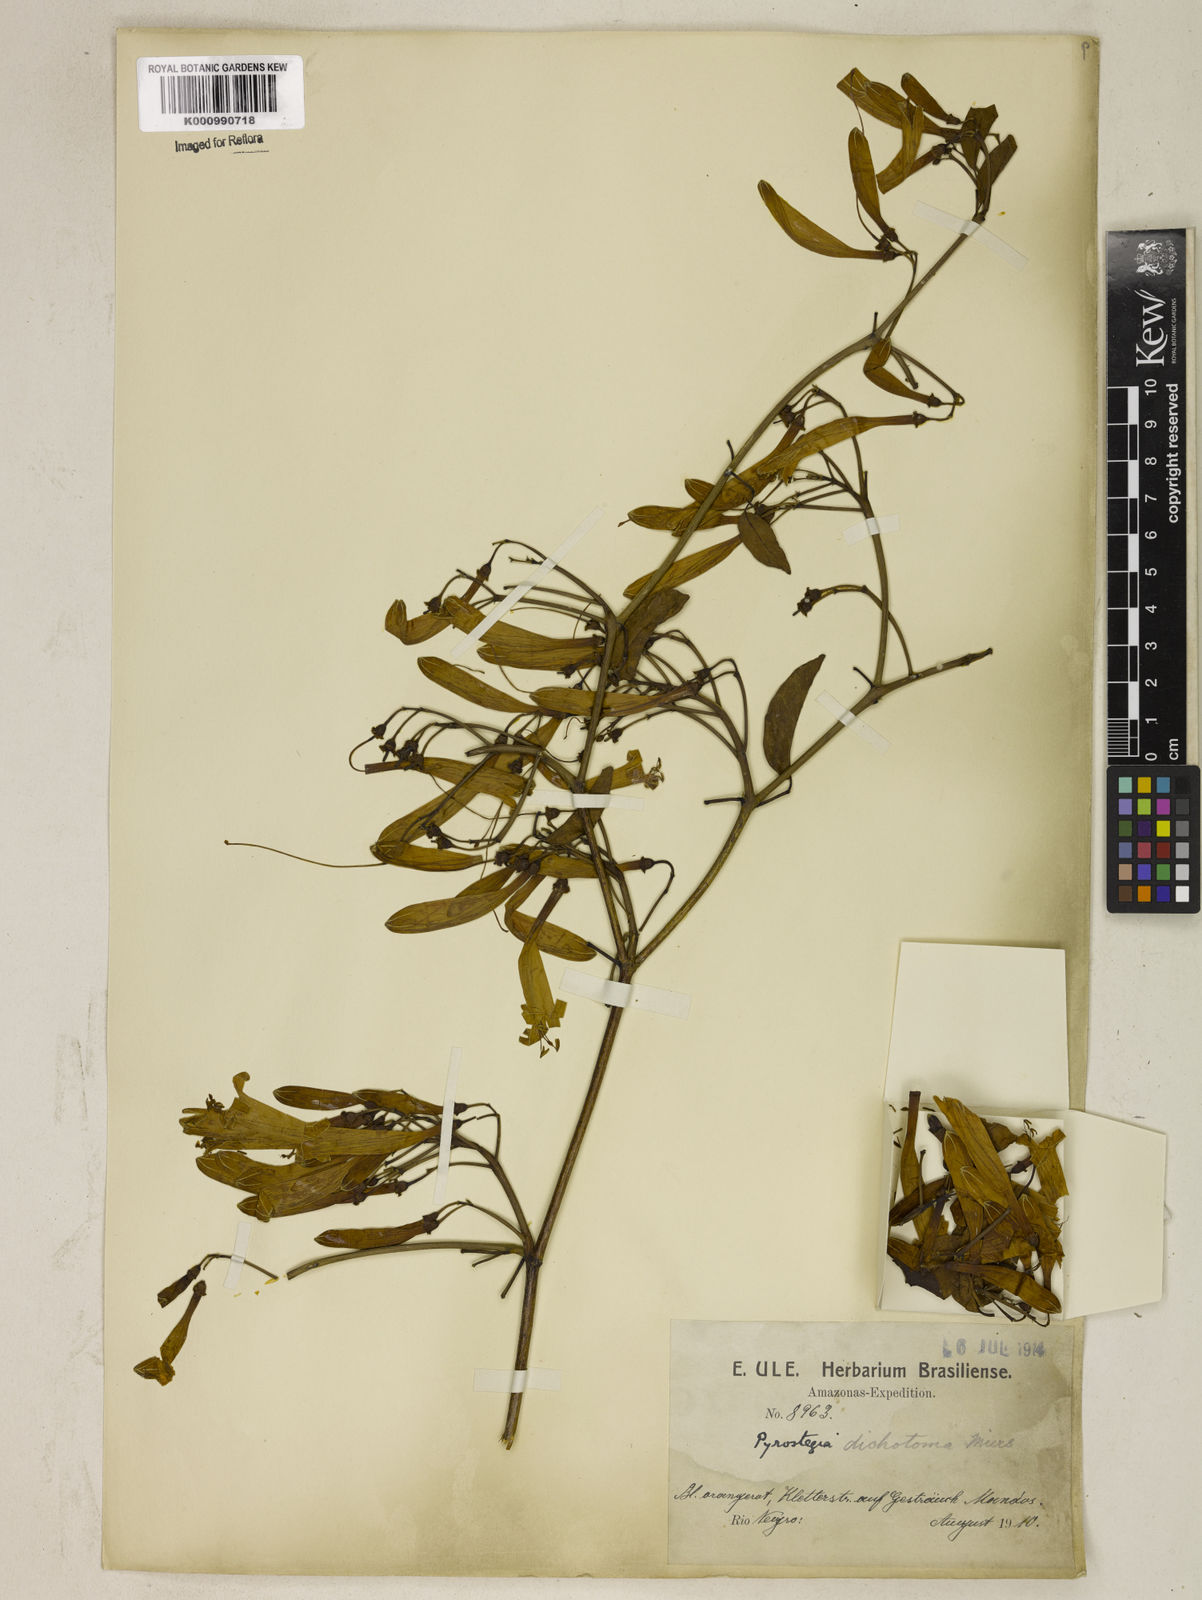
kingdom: Plantae
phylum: Tracheophyta
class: Magnoliopsida
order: Lamiales
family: Bignoniaceae
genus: Pyrostegia
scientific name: Pyrostegia
